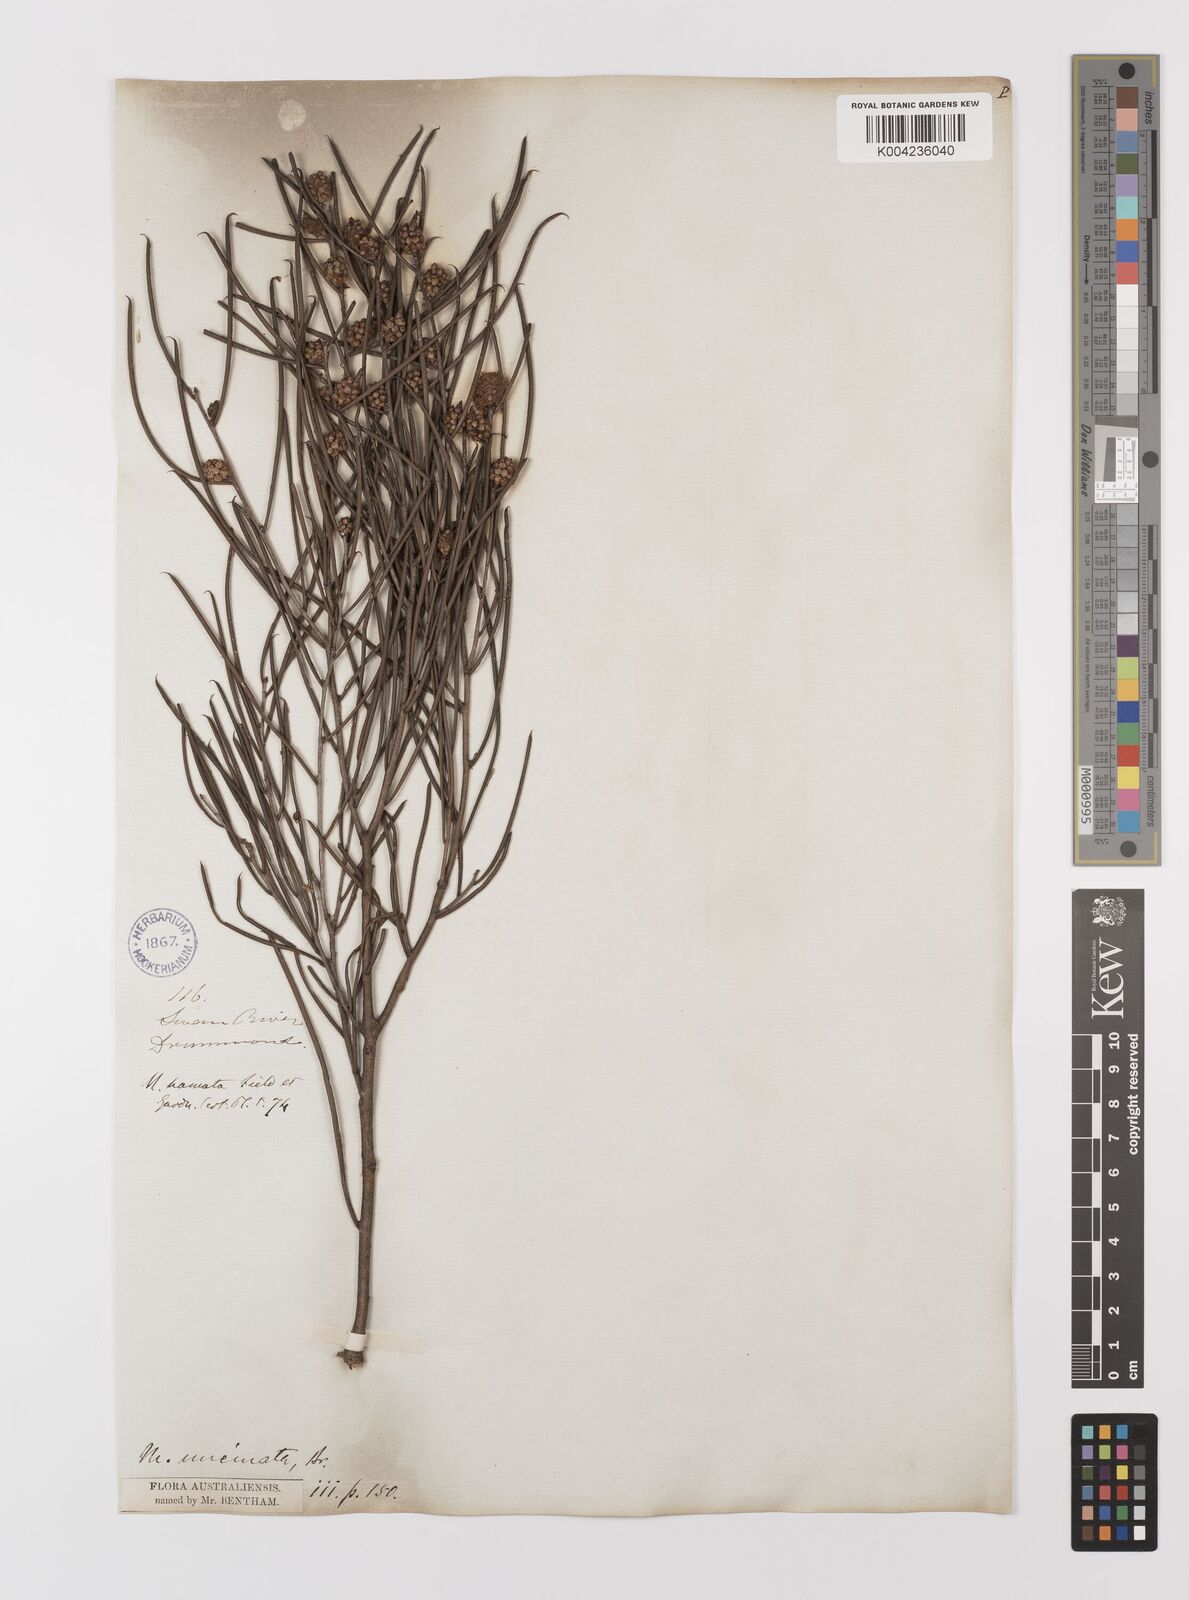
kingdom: Plantae
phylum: Tracheophyta
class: Magnoliopsida
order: Myrtales
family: Myrtaceae
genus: Melaleuca
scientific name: Melaleuca uncinata
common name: Broom honey myrtle
